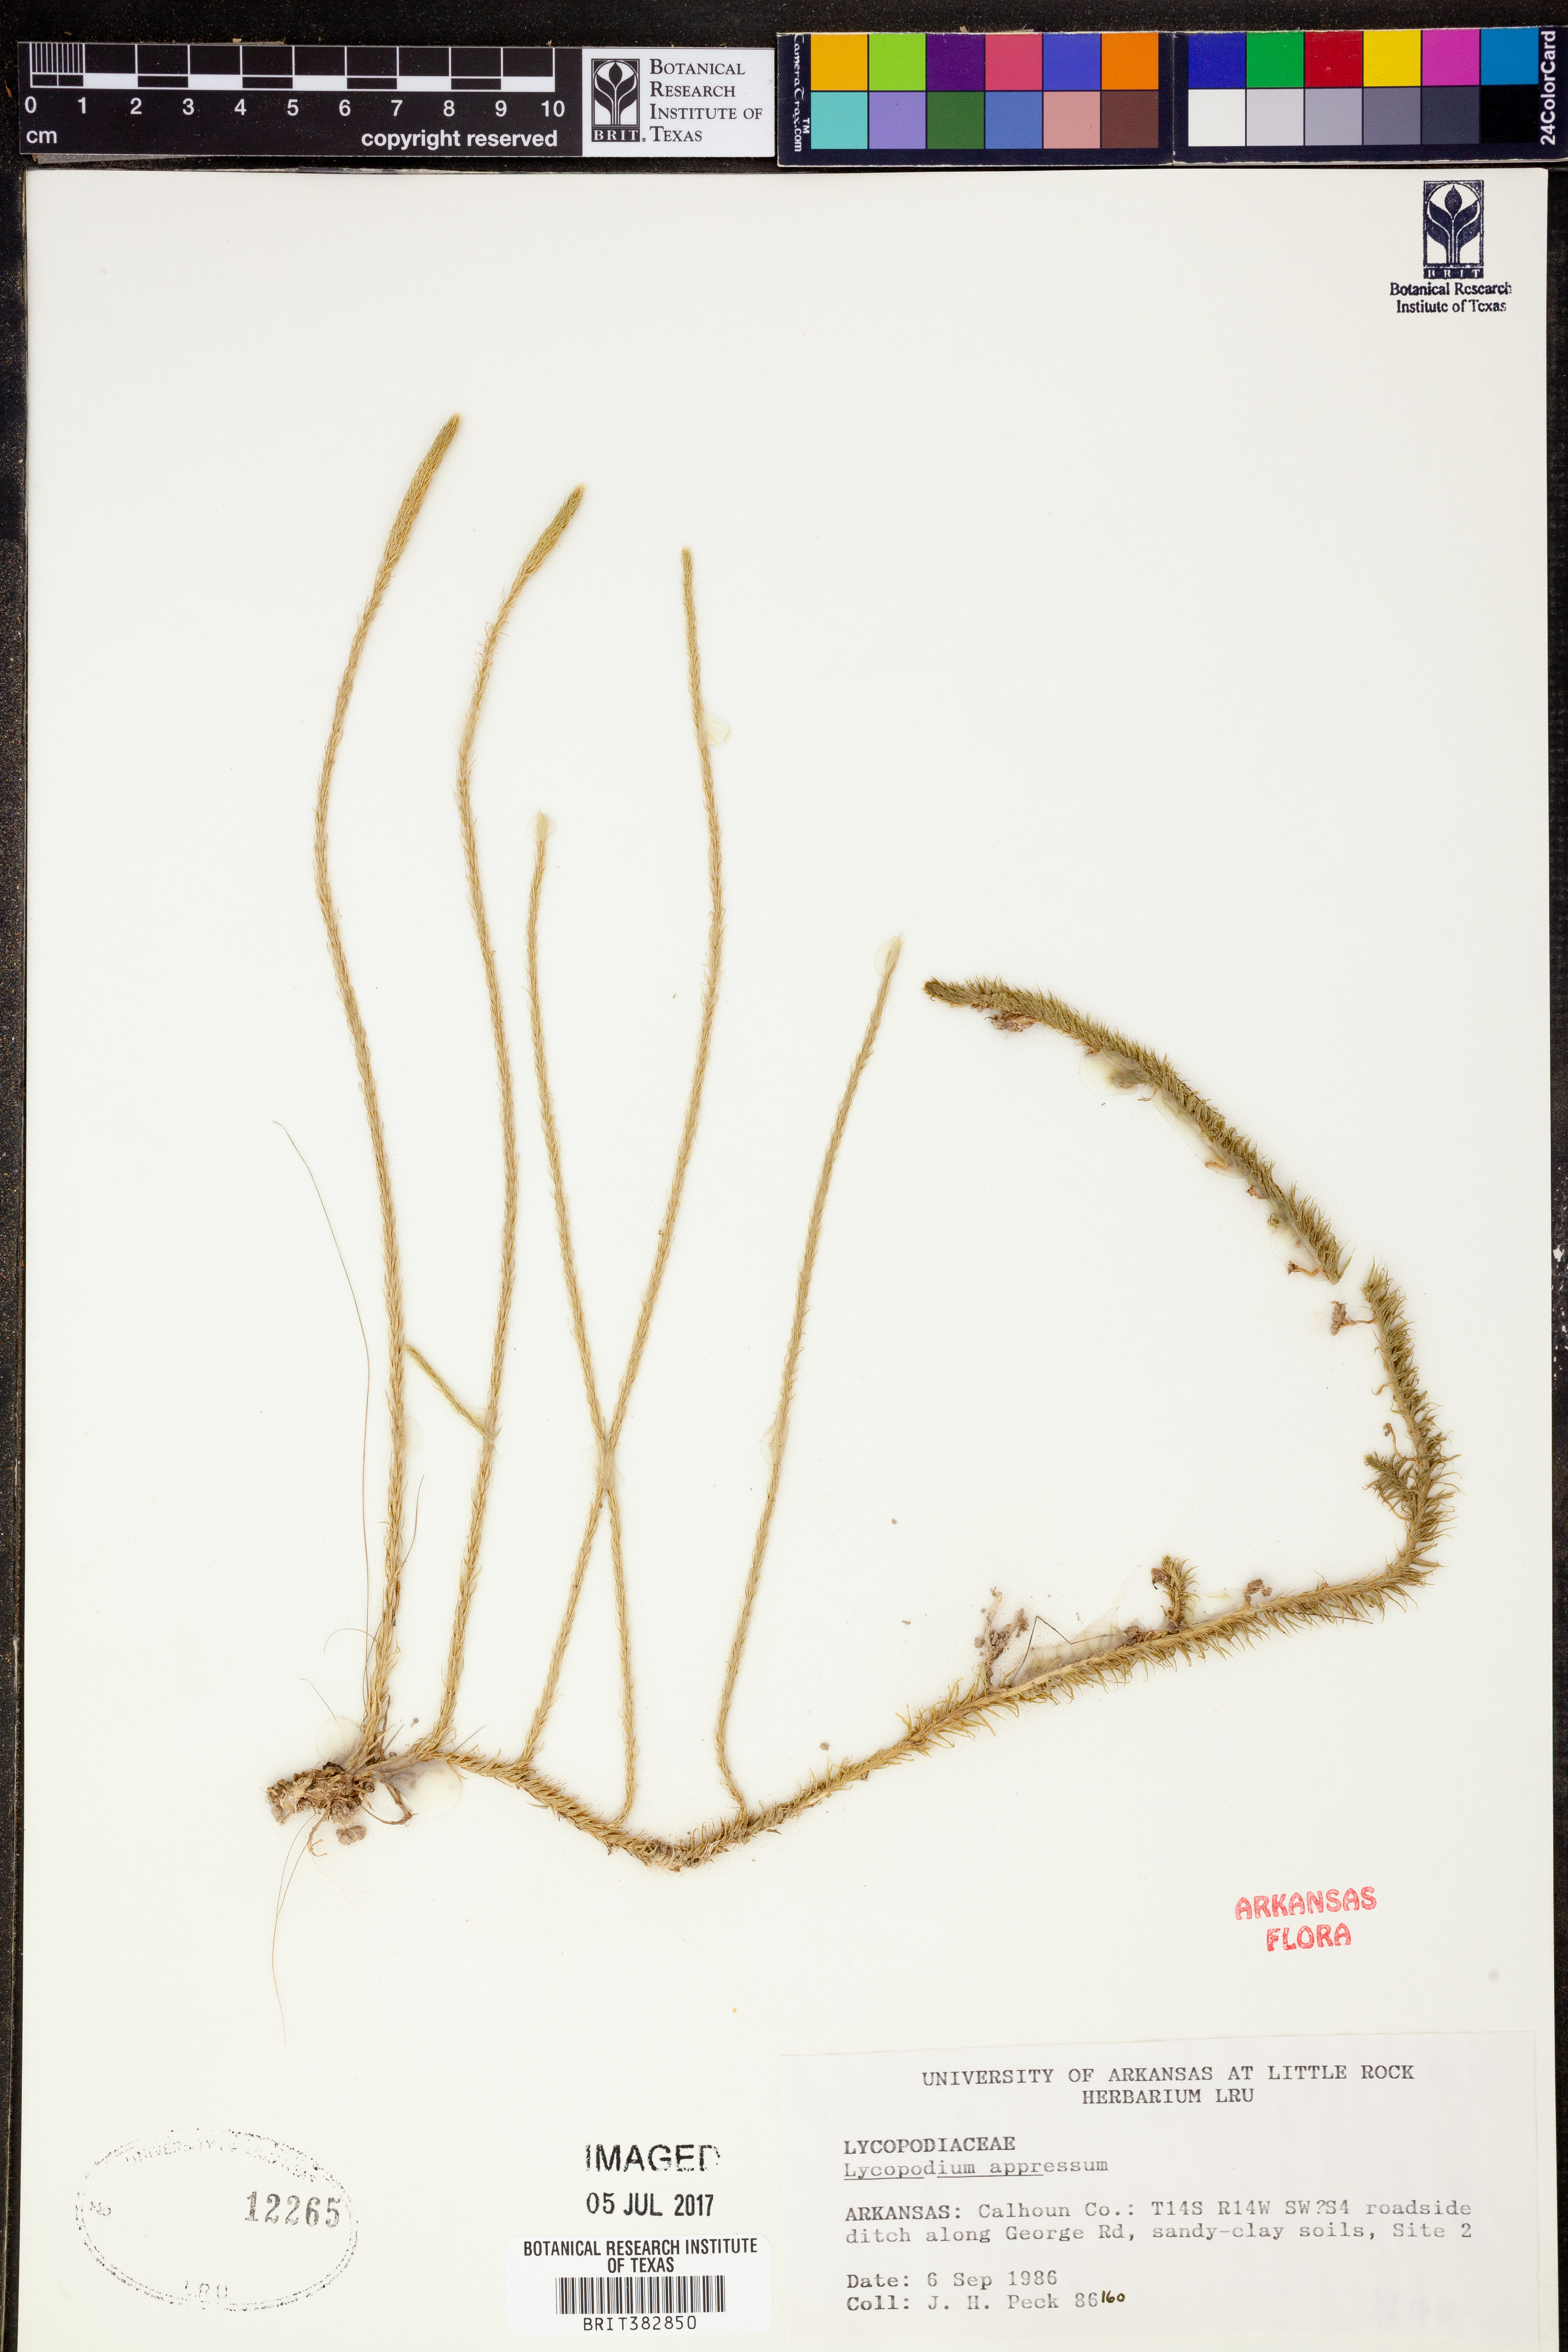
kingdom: Plantae
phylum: Tracheophyta
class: Lycopodiopsida
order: Lycopodiales
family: Lycopodiaceae
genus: Lycopodiella
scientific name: Lycopodiella appressa
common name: Appressed bog clubmoss
